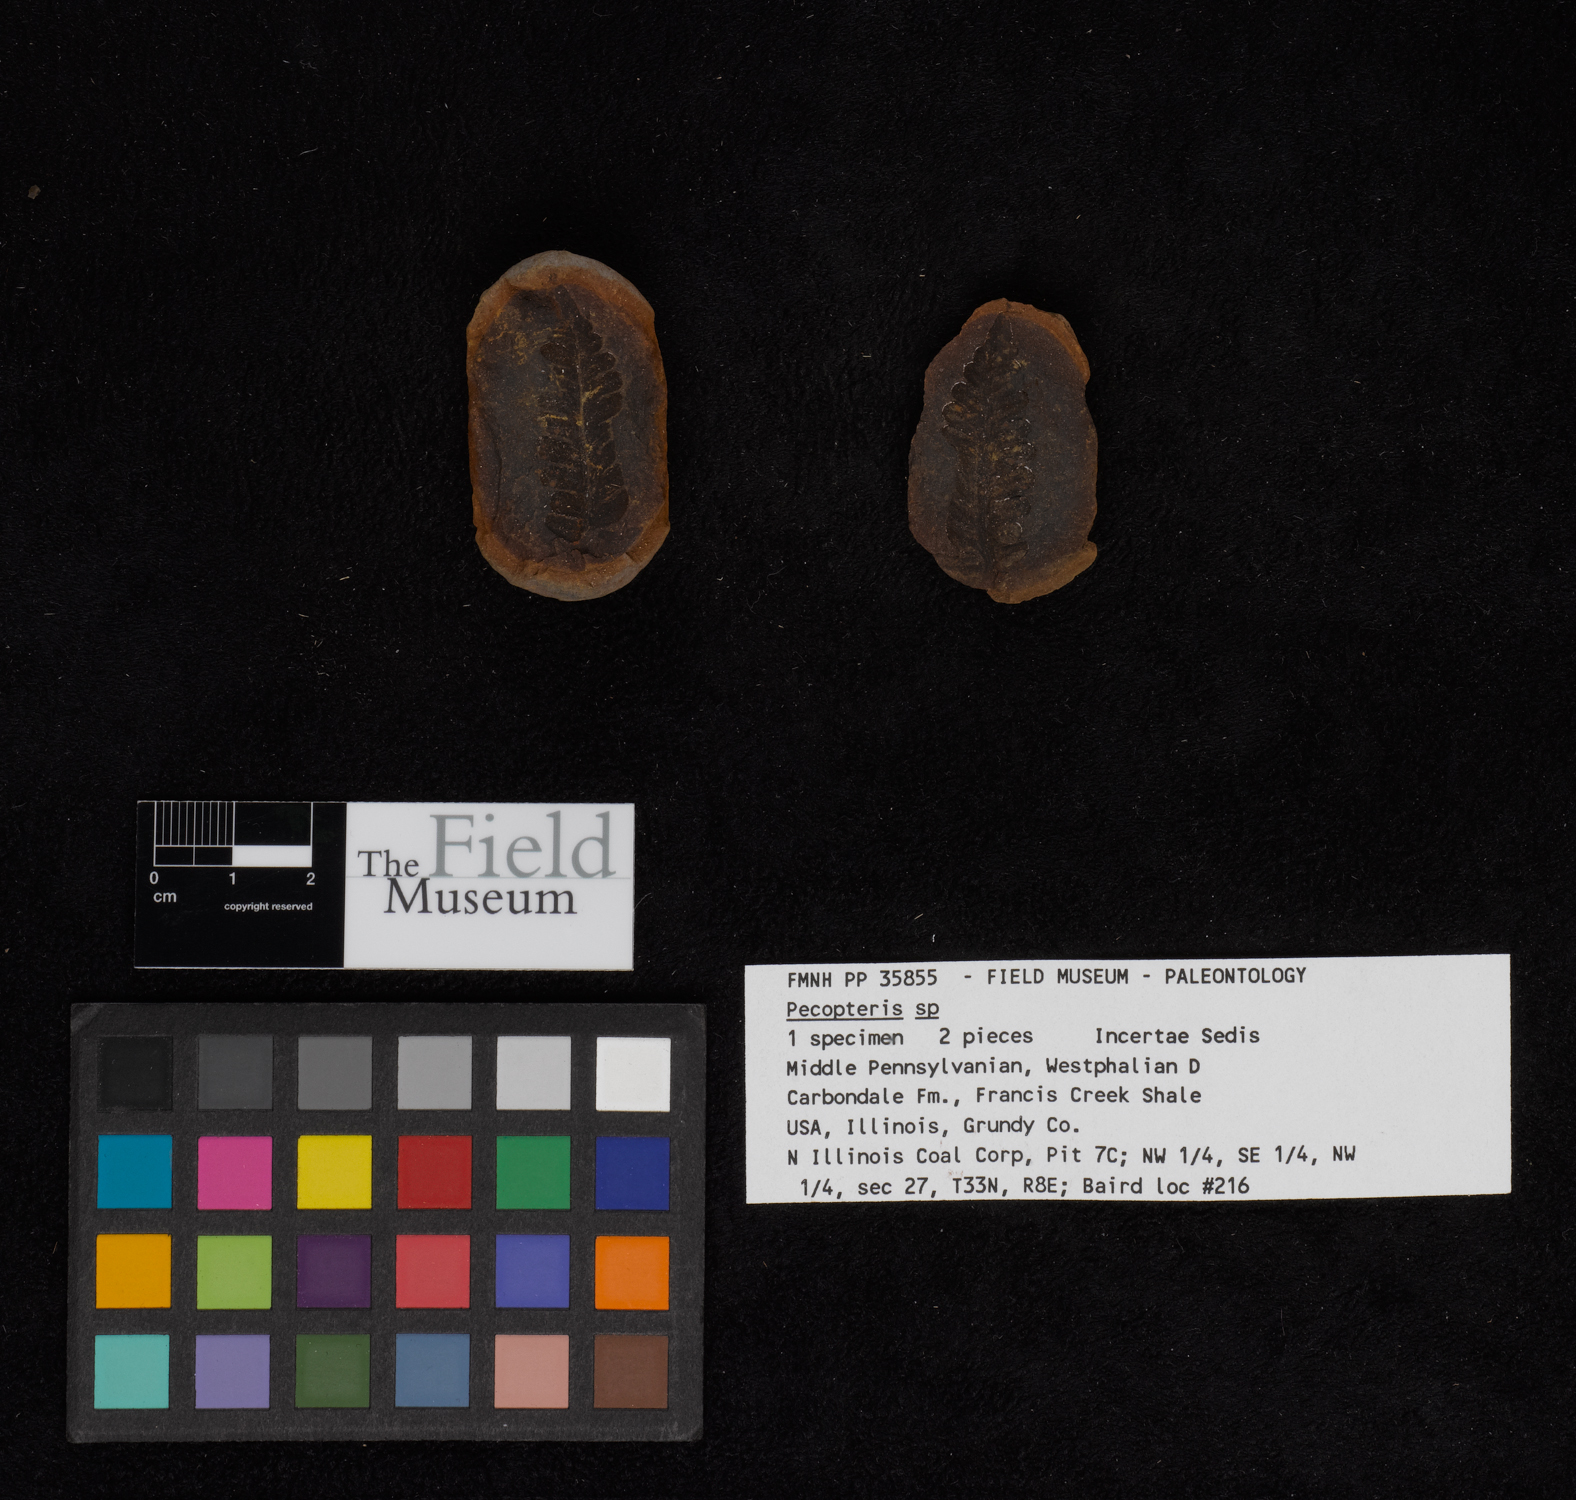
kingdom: Plantae
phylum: Tracheophyta
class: Polypodiopsida
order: Marattiales
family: Asterothecaceae
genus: Pecopteris
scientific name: Pecopteris
